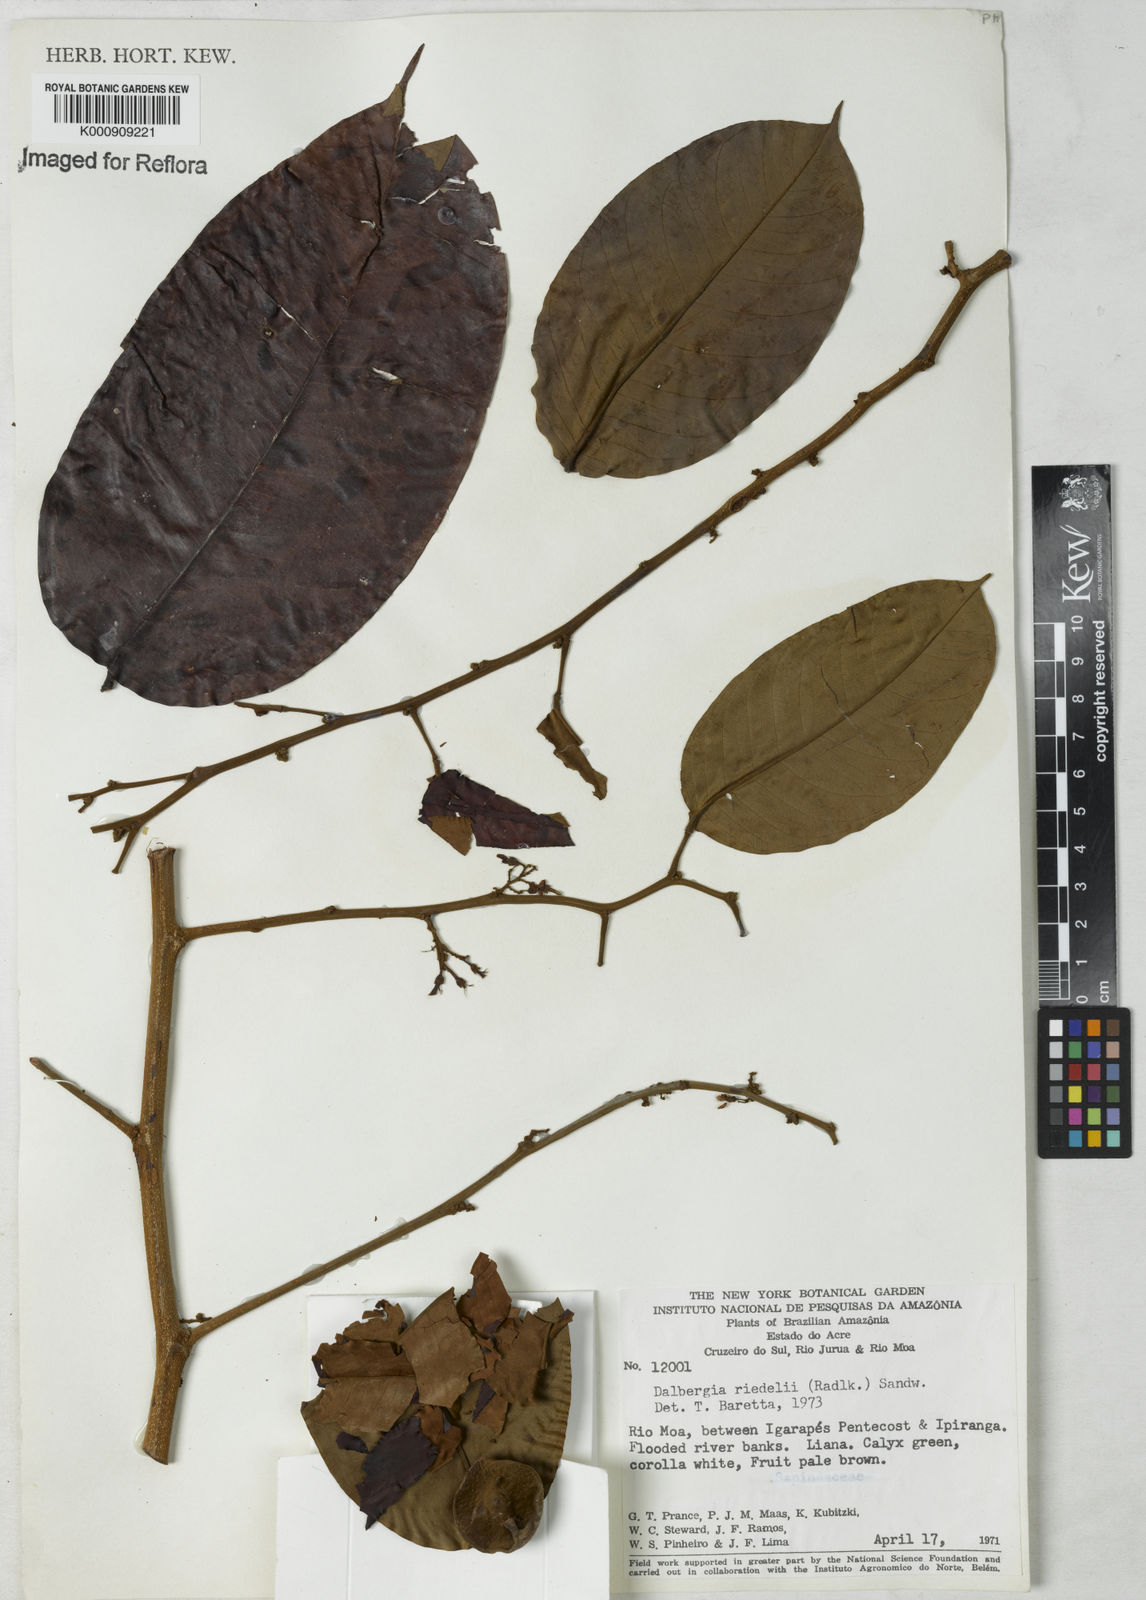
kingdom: Plantae
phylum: Tracheophyta
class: Magnoliopsida
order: Fabales
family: Fabaceae
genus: Dalbergia
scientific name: Dalbergia riedelii
